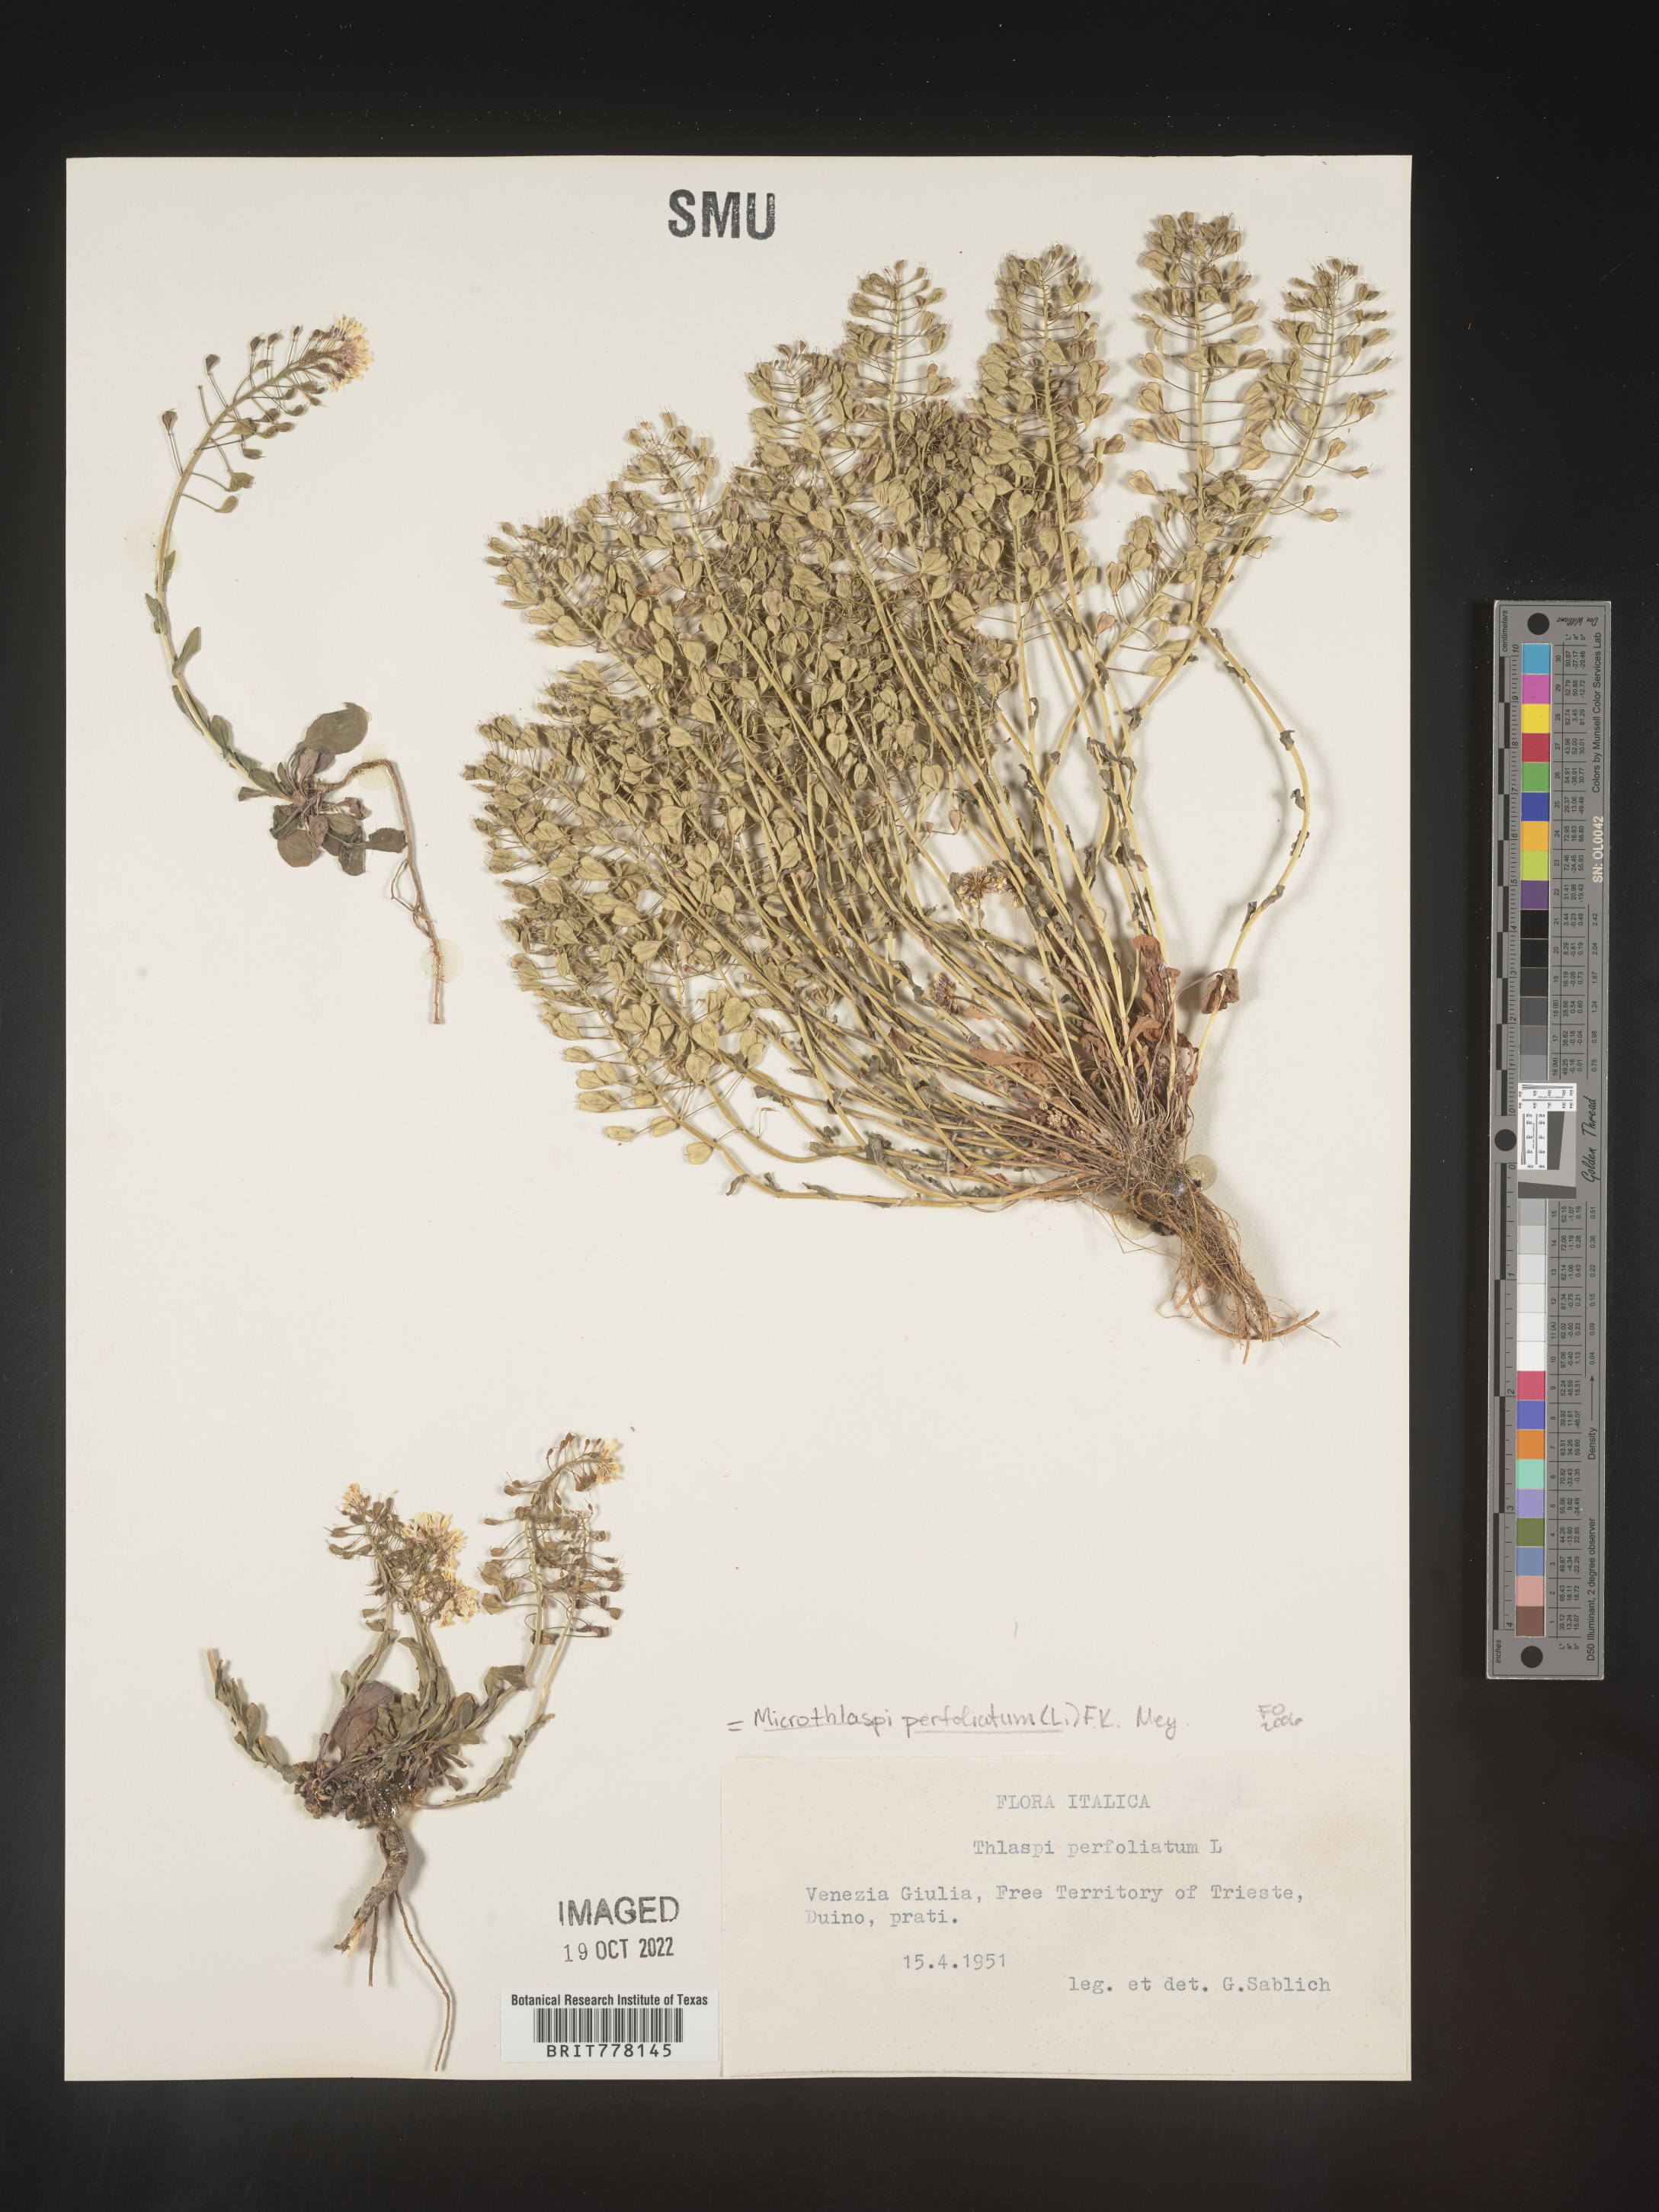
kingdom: Plantae
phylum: Tracheophyta
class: Magnoliopsida
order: Brassicales
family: Brassicaceae
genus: Noccaea
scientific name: Noccaea
